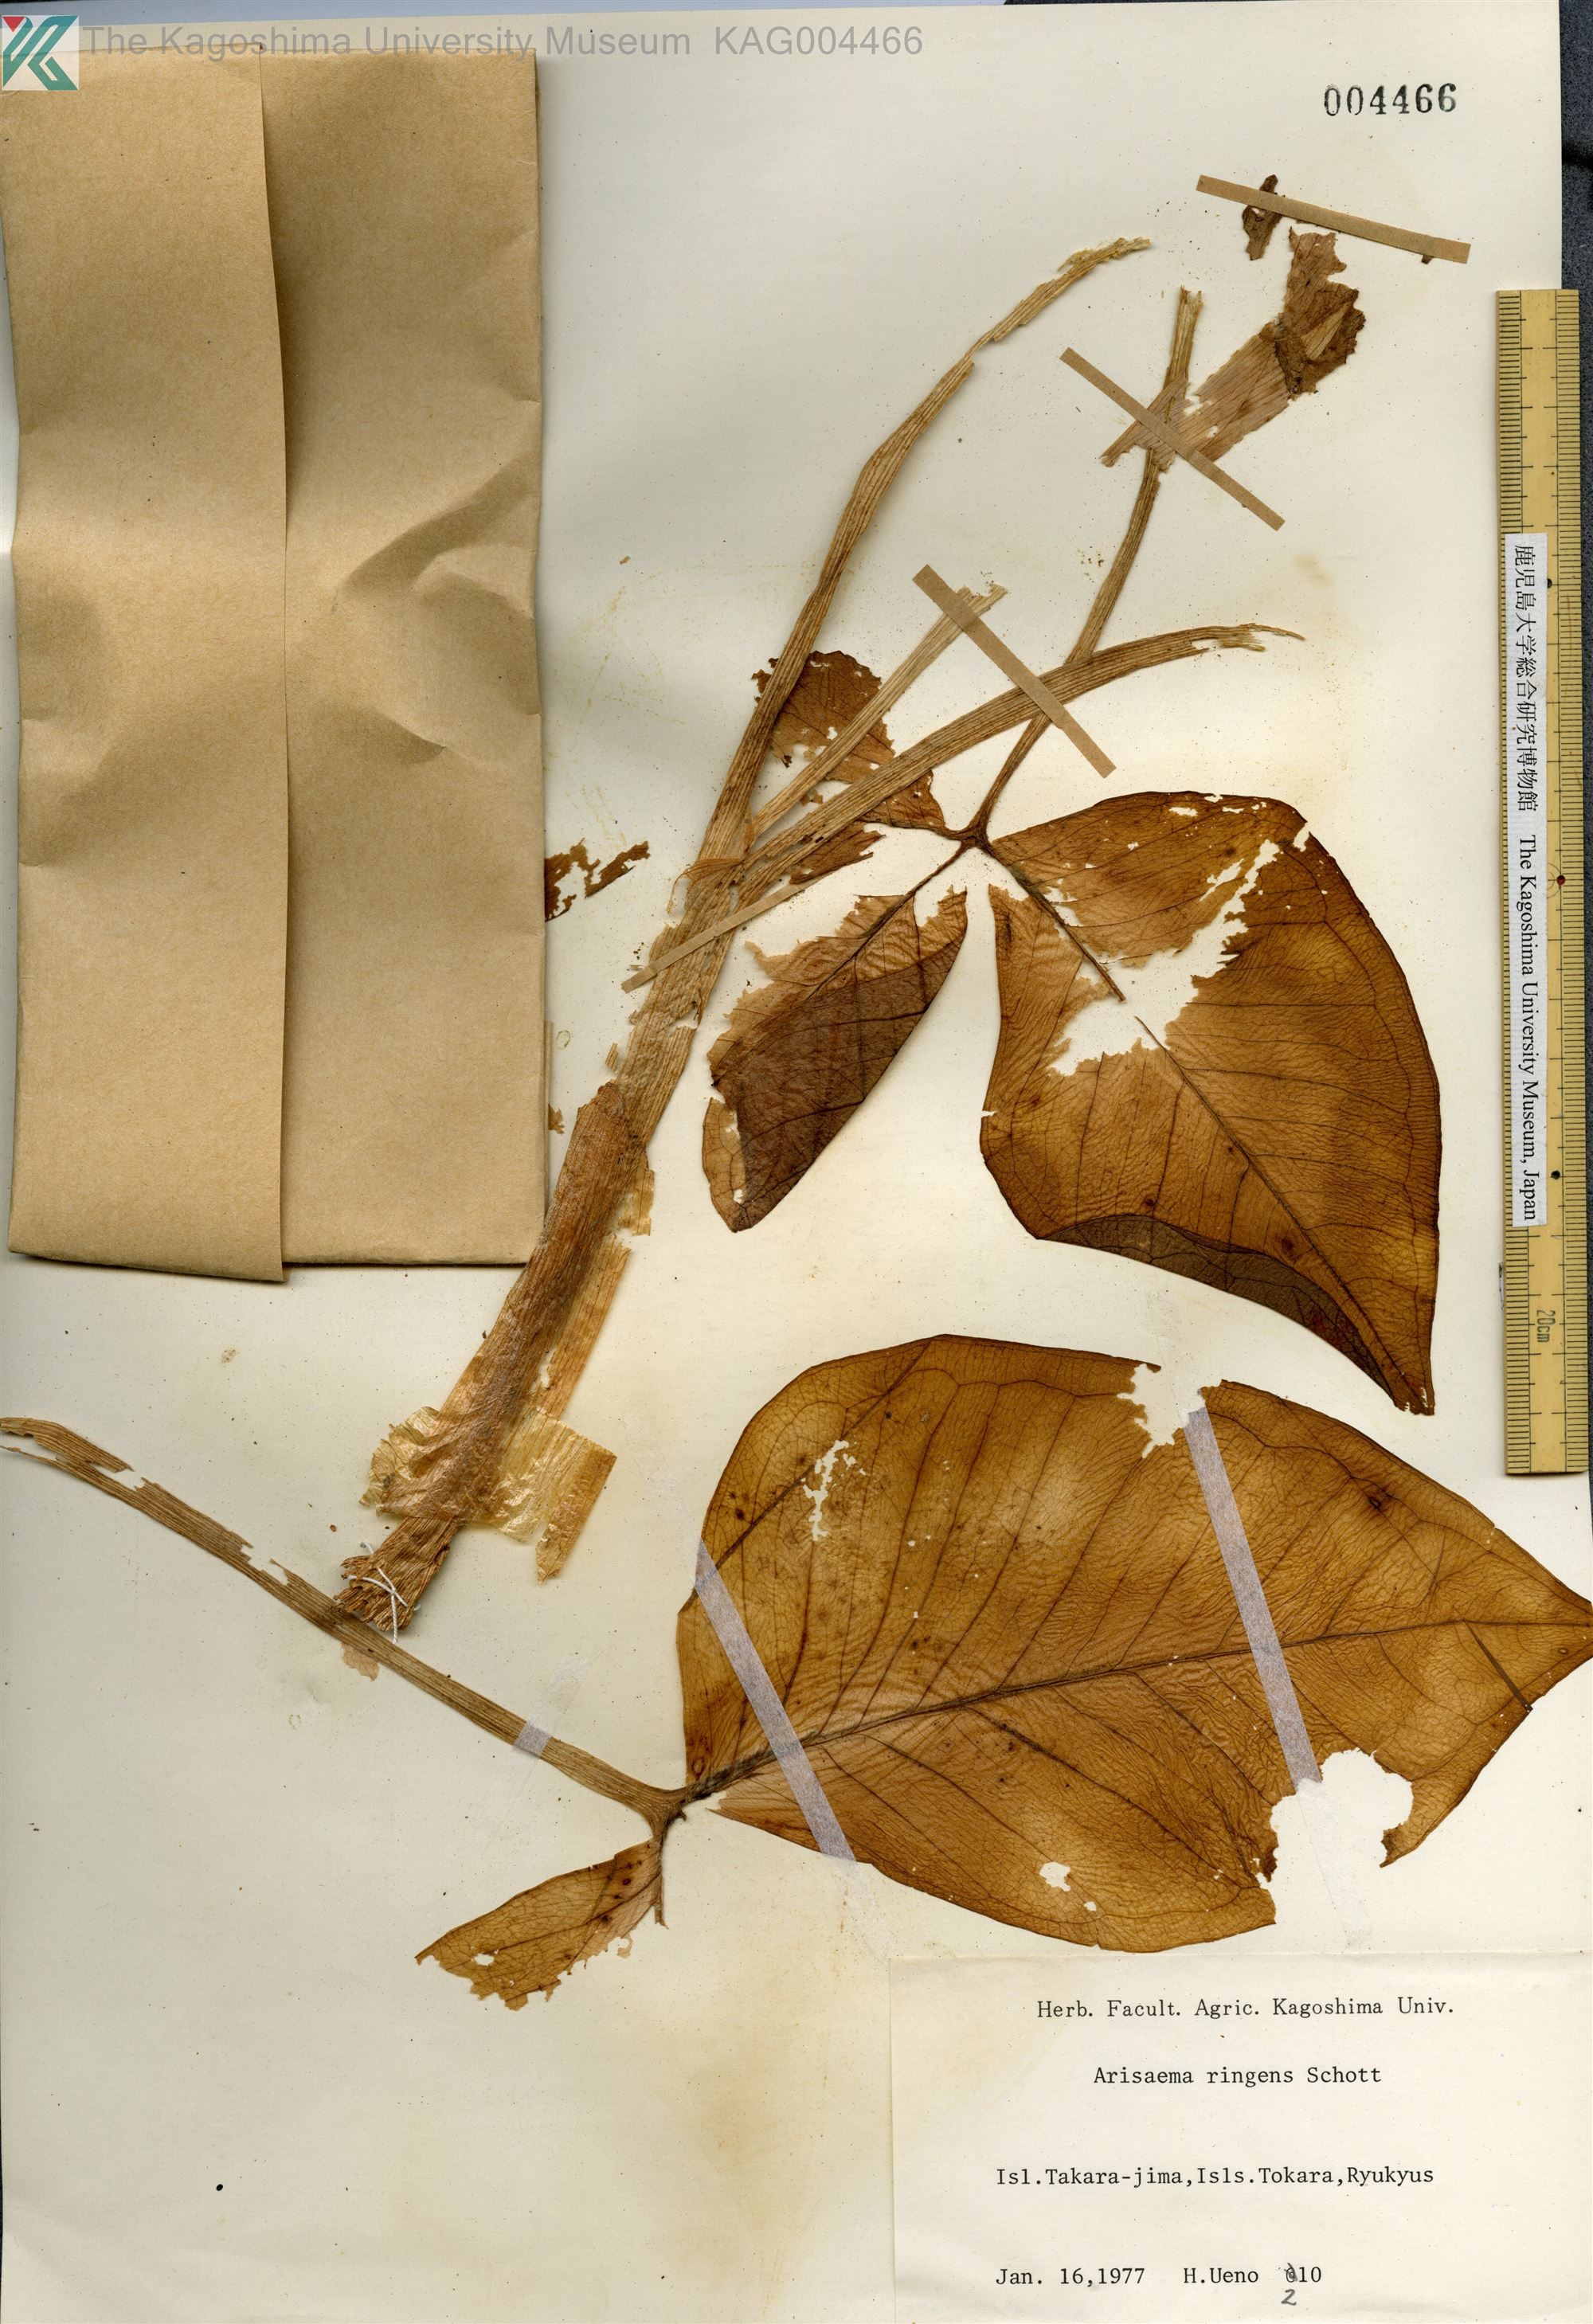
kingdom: Plantae
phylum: Tracheophyta
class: Liliopsida
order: Alismatales
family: Araceae
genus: Arisaema
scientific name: Arisaema ringens
